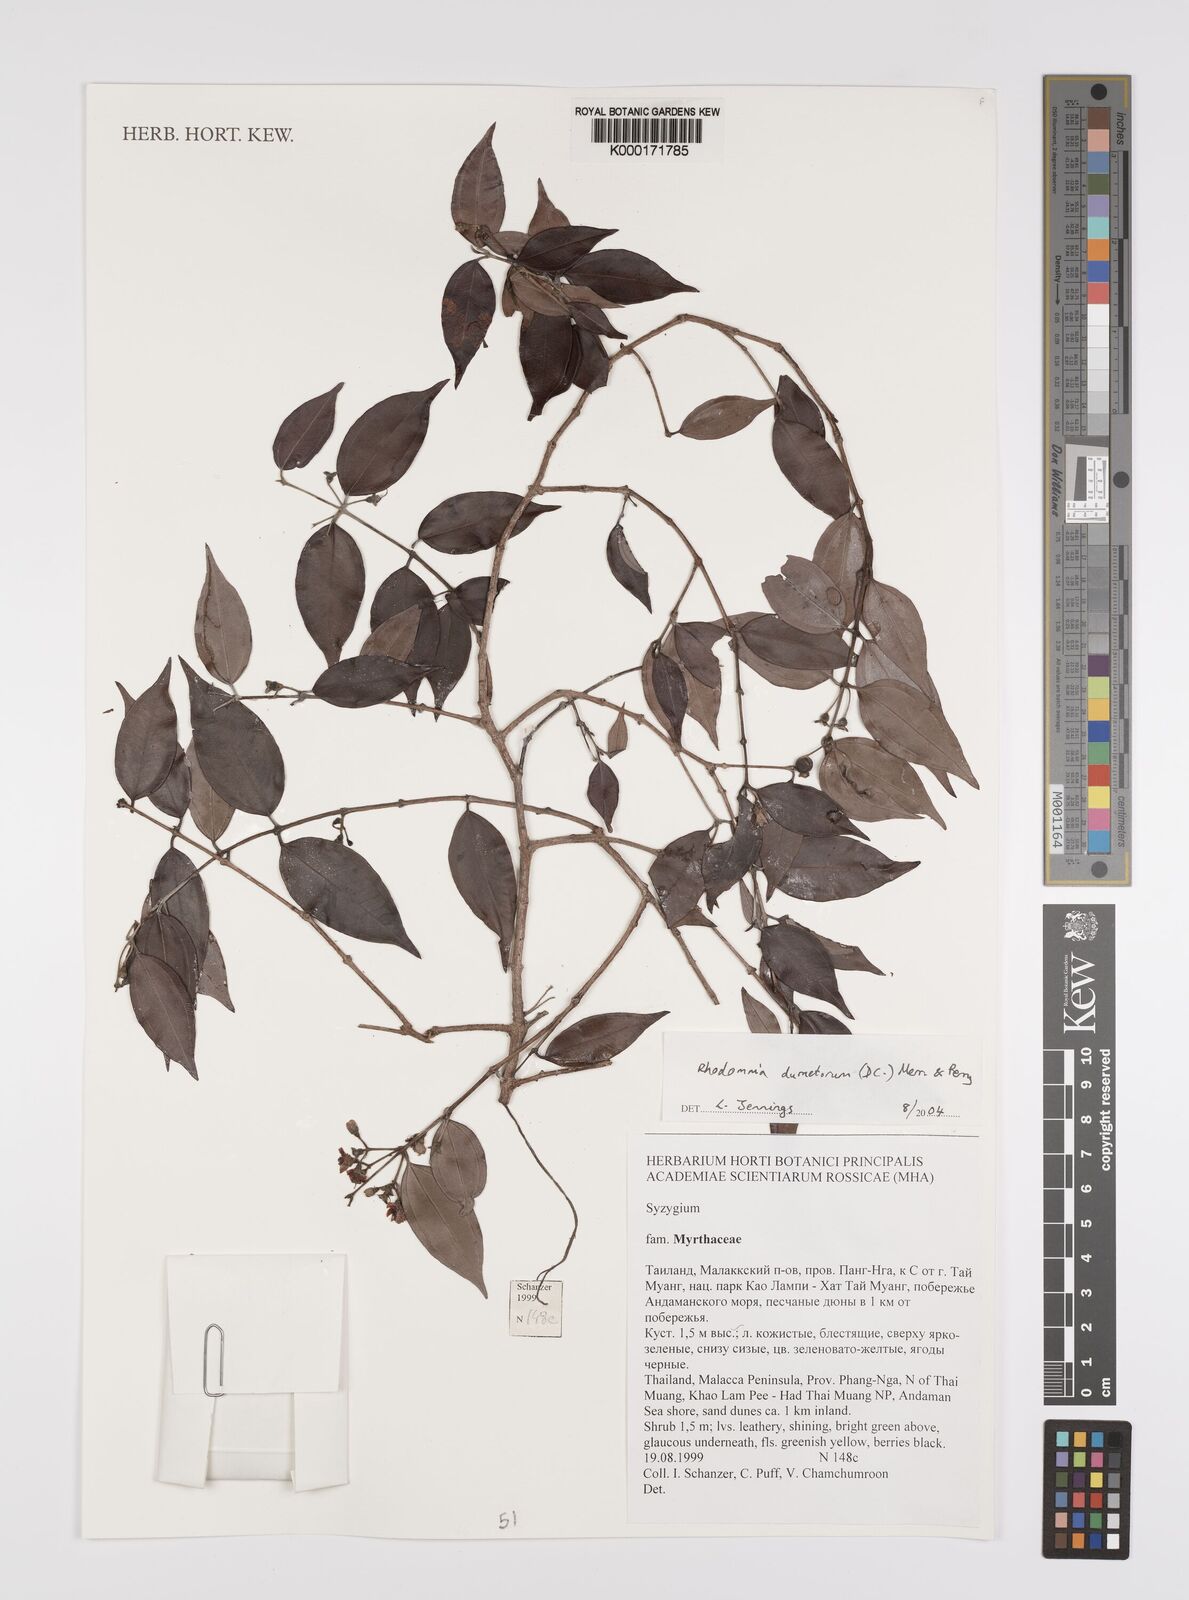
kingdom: Plantae
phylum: Tracheophyta
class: Magnoliopsida
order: Myrtales
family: Myrtaceae
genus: Rhodamnia
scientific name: Rhodamnia dumetorum
